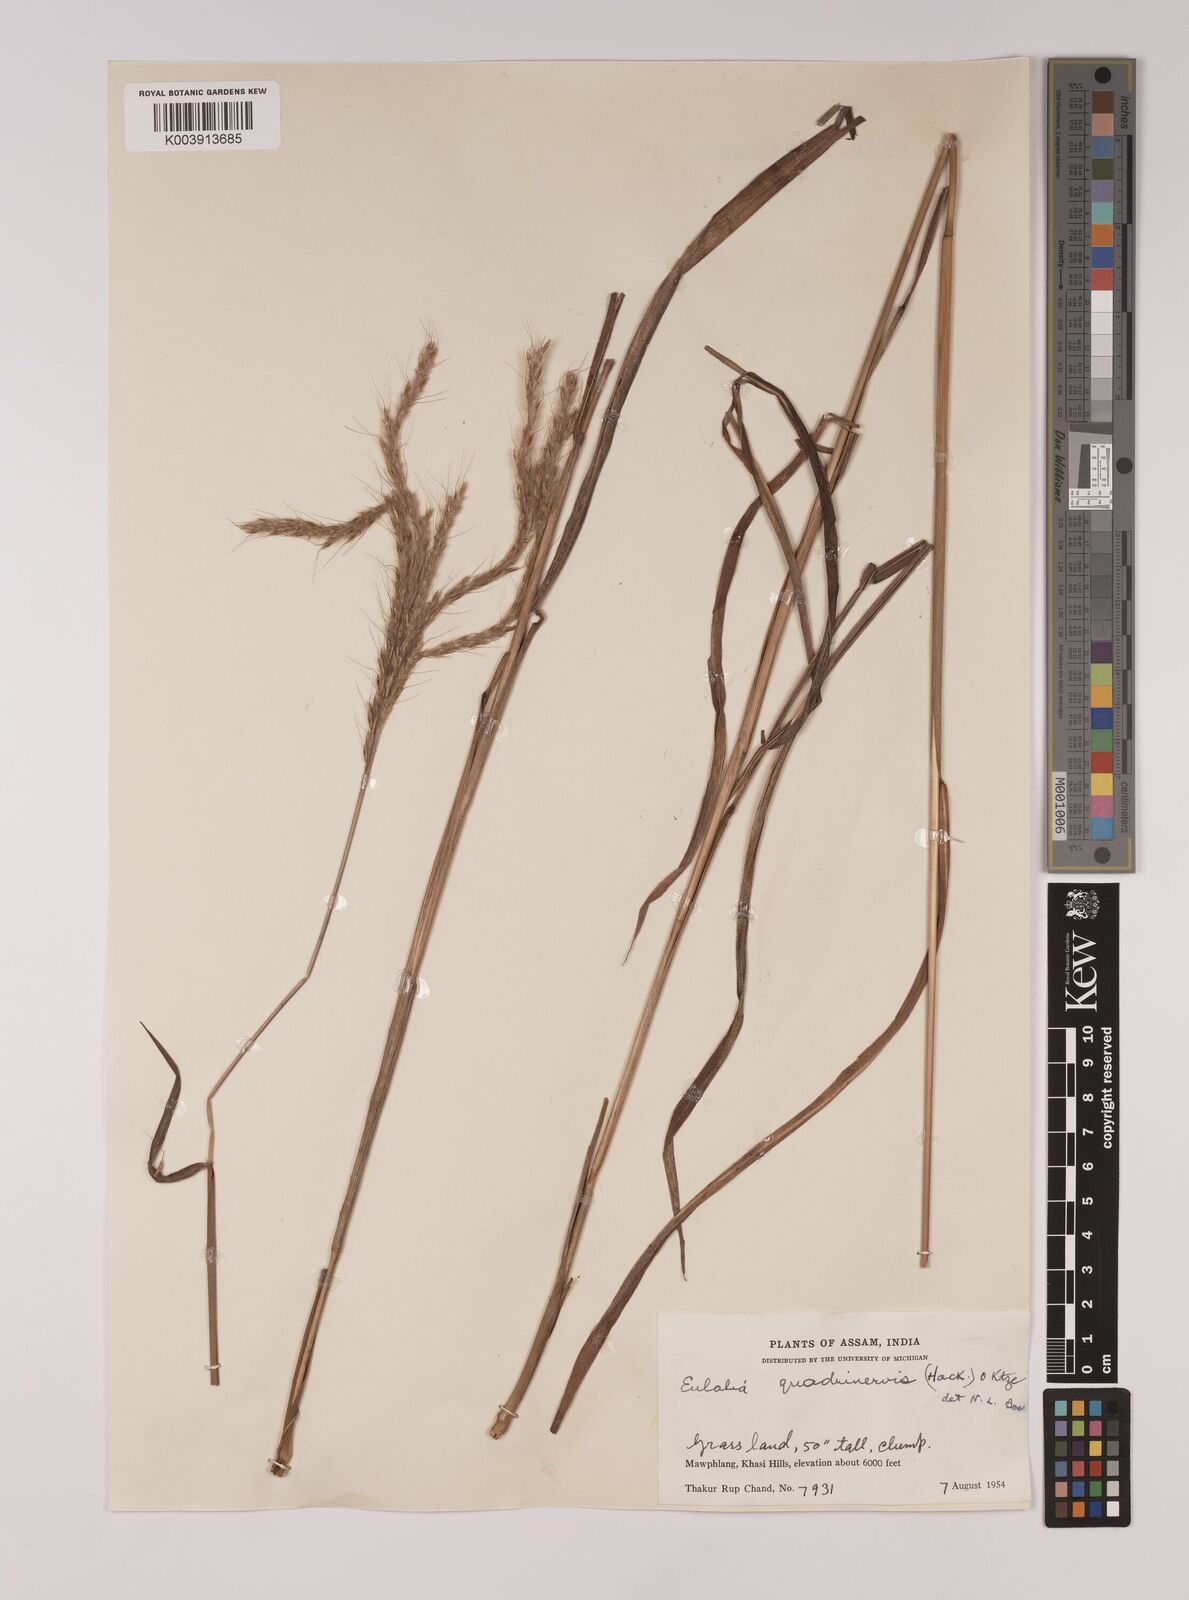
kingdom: Plantae
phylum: Tracheophyta
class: Liliopsida
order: Poales
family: Poaceae
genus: Pseudopogonatherum
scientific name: Pseudopogonatherum quadrinerve
